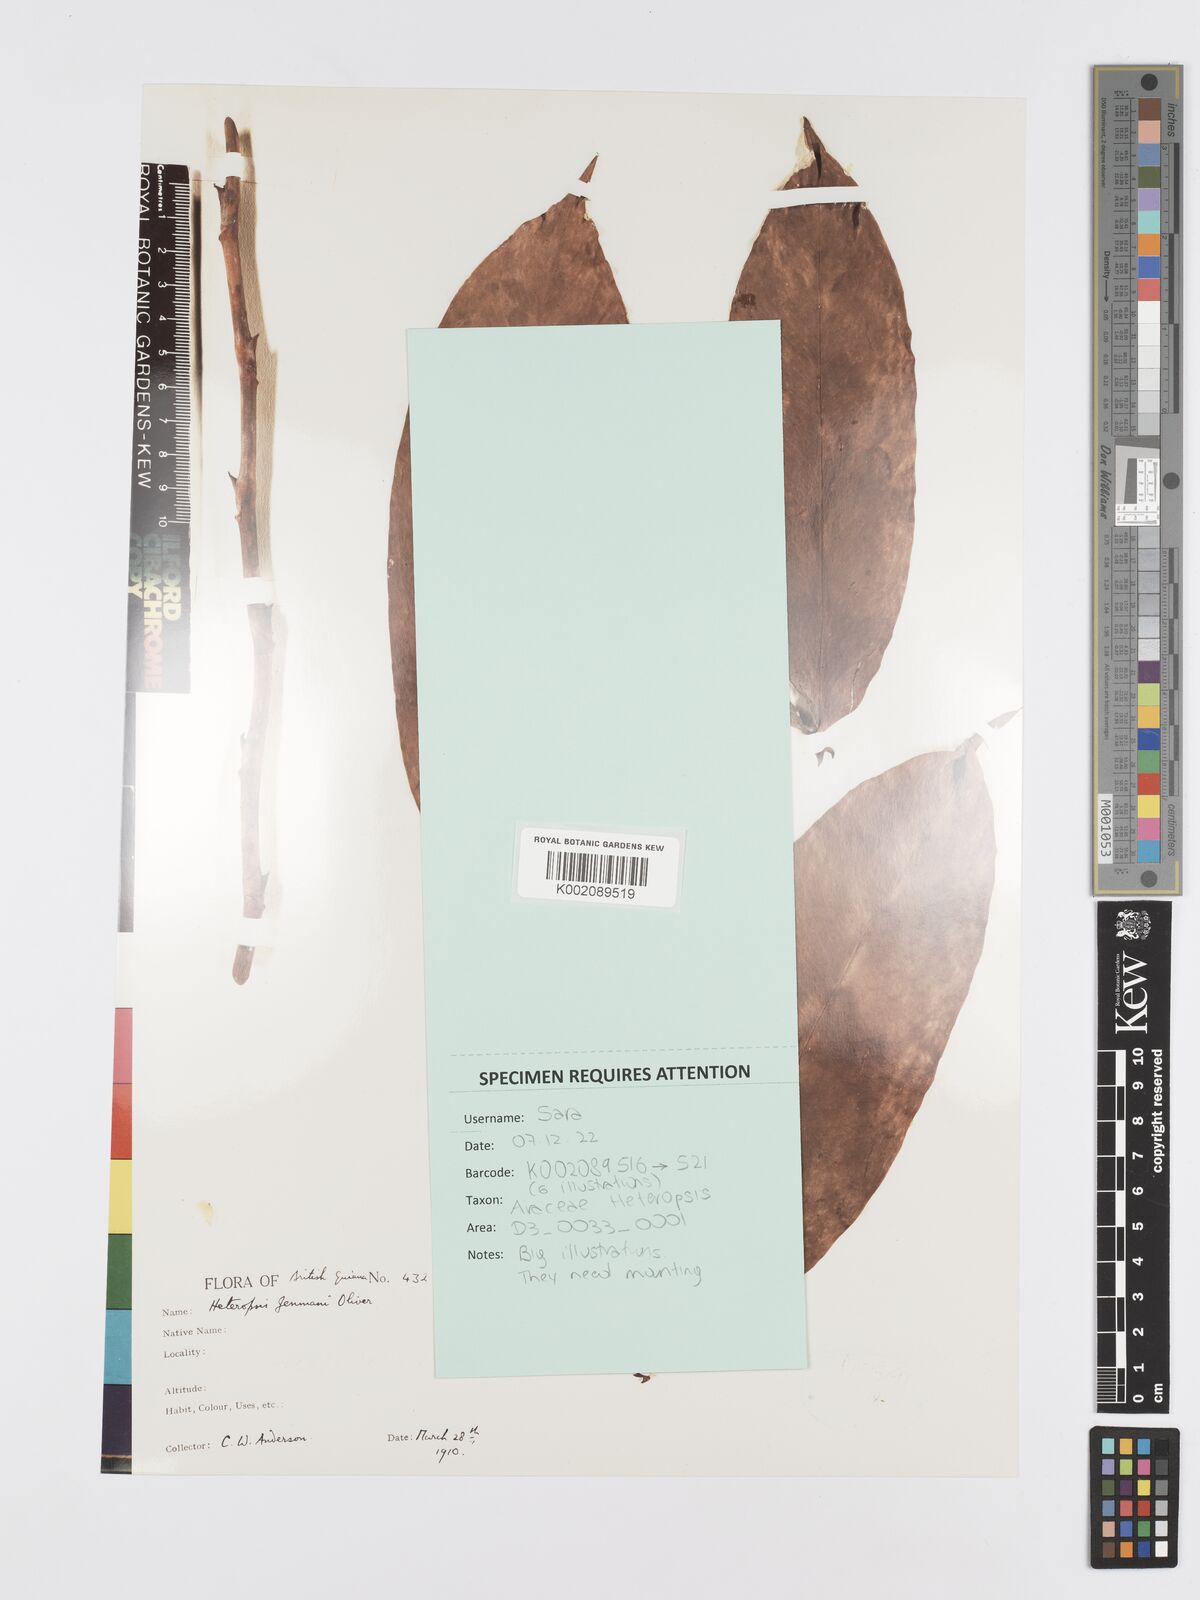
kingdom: Plantae
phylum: Tracheophyta
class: Liliopsida
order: Alismatales
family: Araceae
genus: Heteropsis
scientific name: Heteropsis flexuosa
